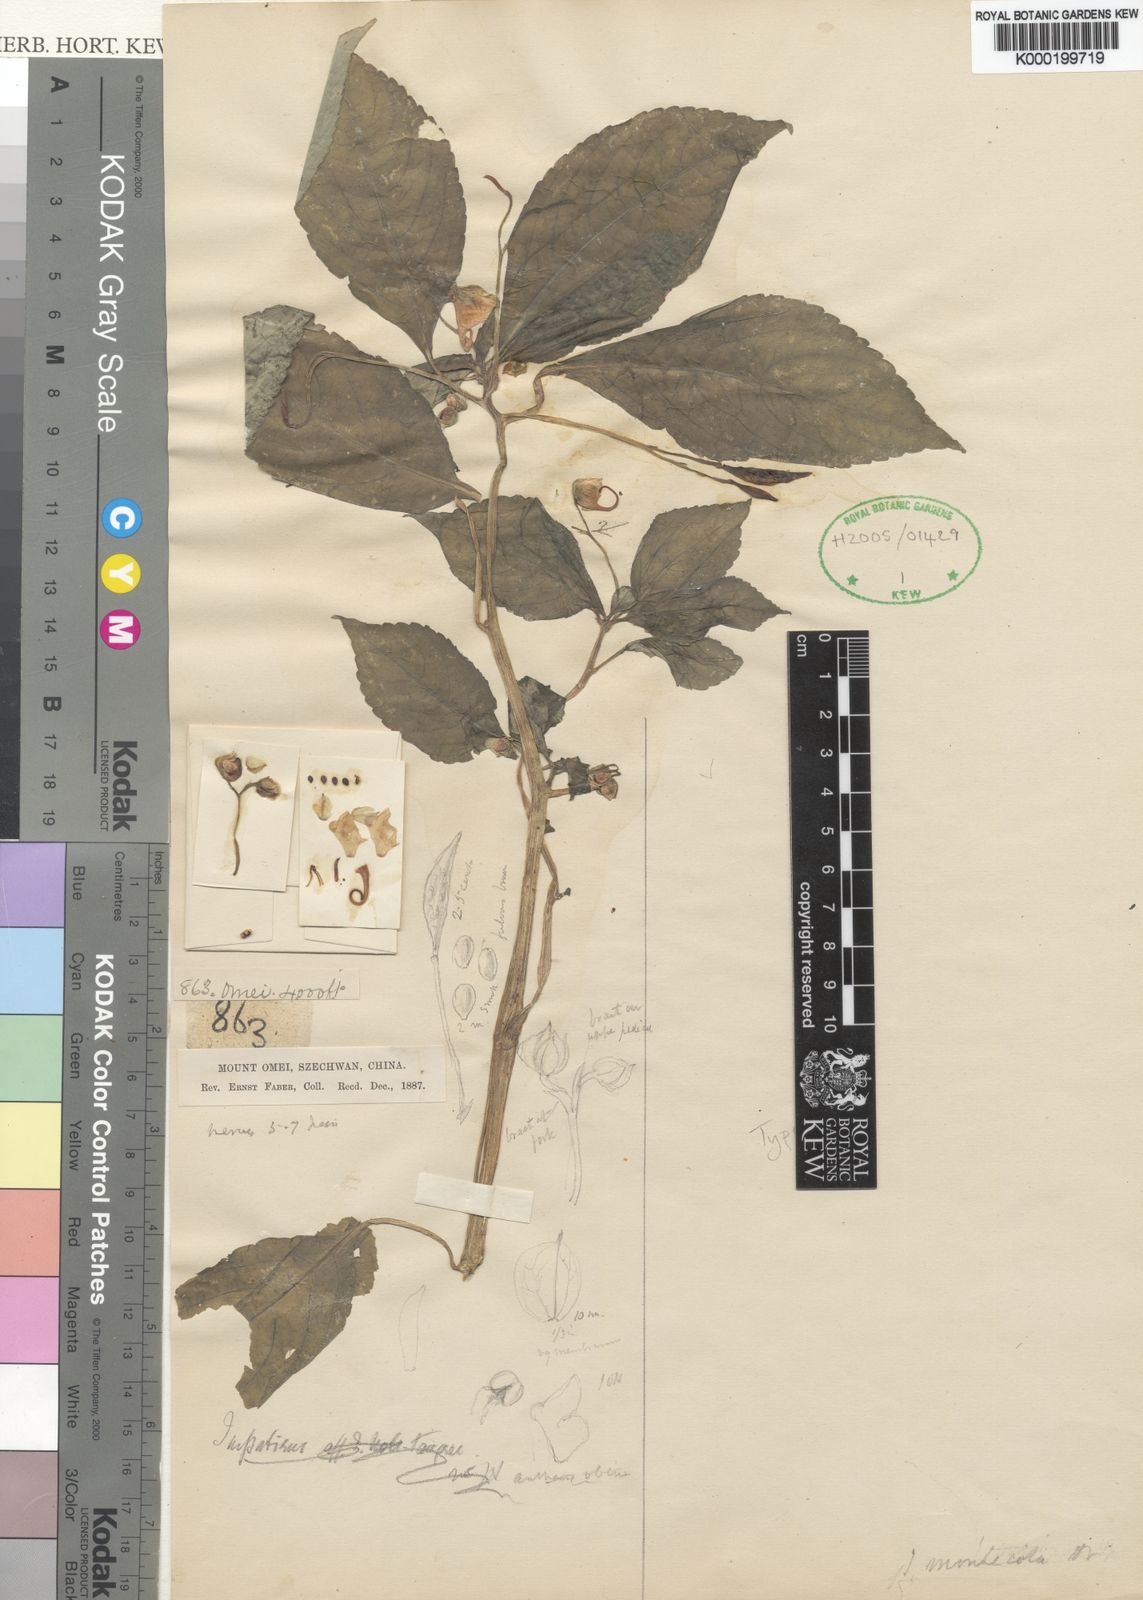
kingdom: Plantae
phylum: Tracheophyta
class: Magnoliopsida
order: Ericales
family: Balsaminaceae
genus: Impatiens
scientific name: Impatiens pulchra
